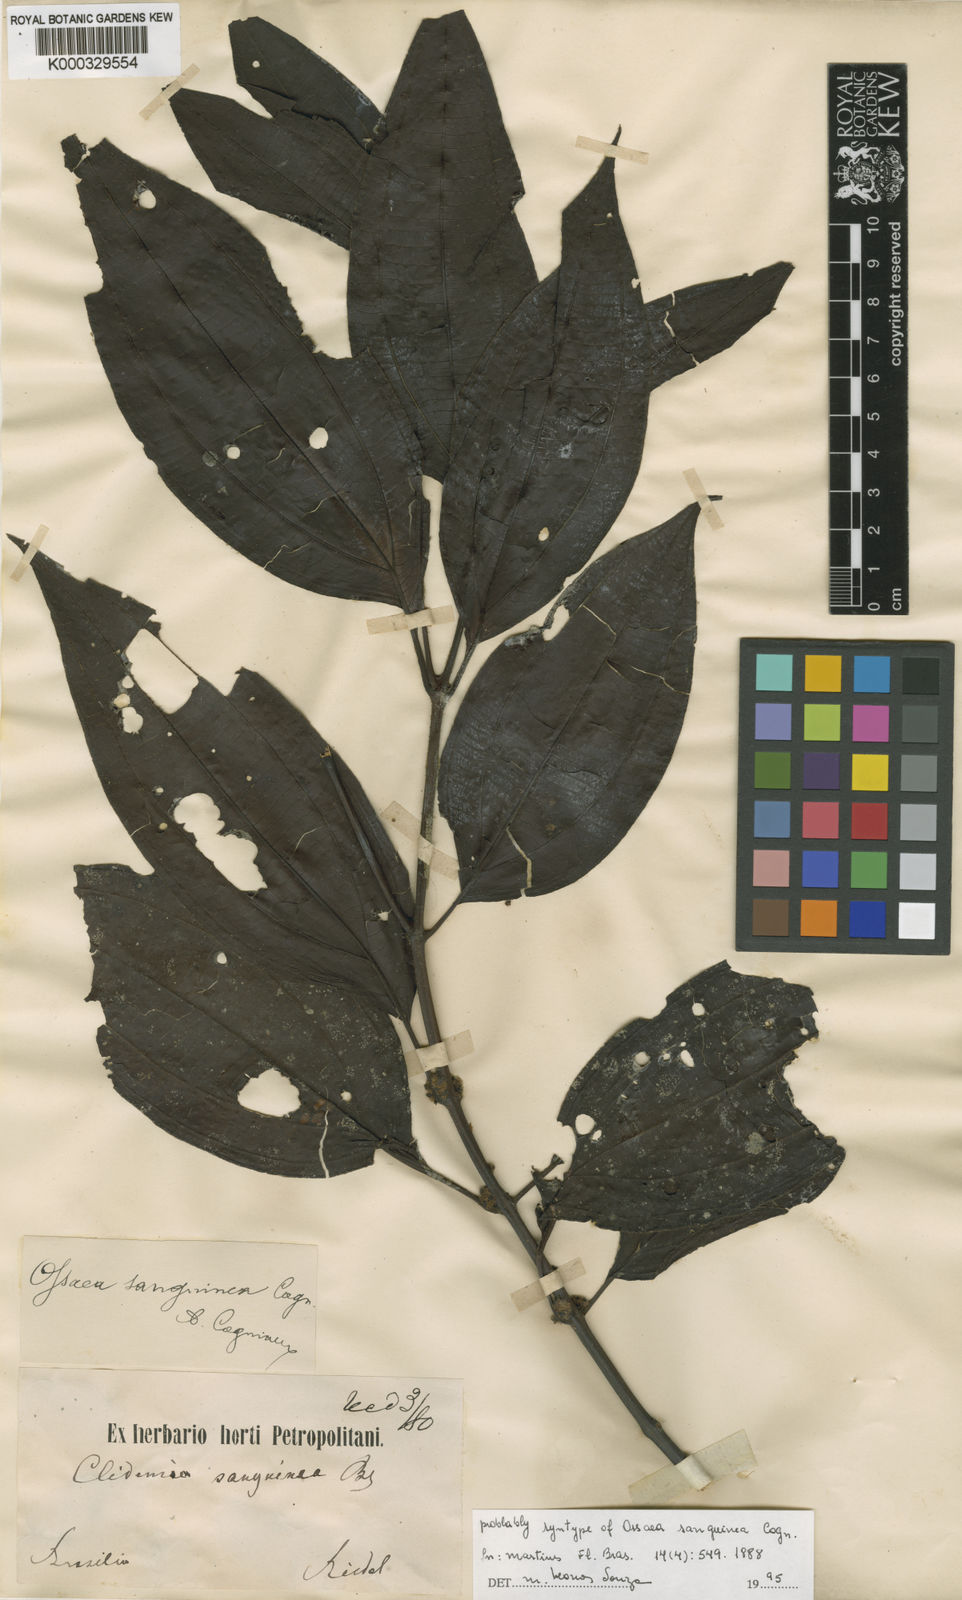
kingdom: Plantae
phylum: Tracheophyta
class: Magnoliopsida
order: Myrtales
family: Melastomataceae
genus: Miconia
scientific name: Miconia secunsanguinea
